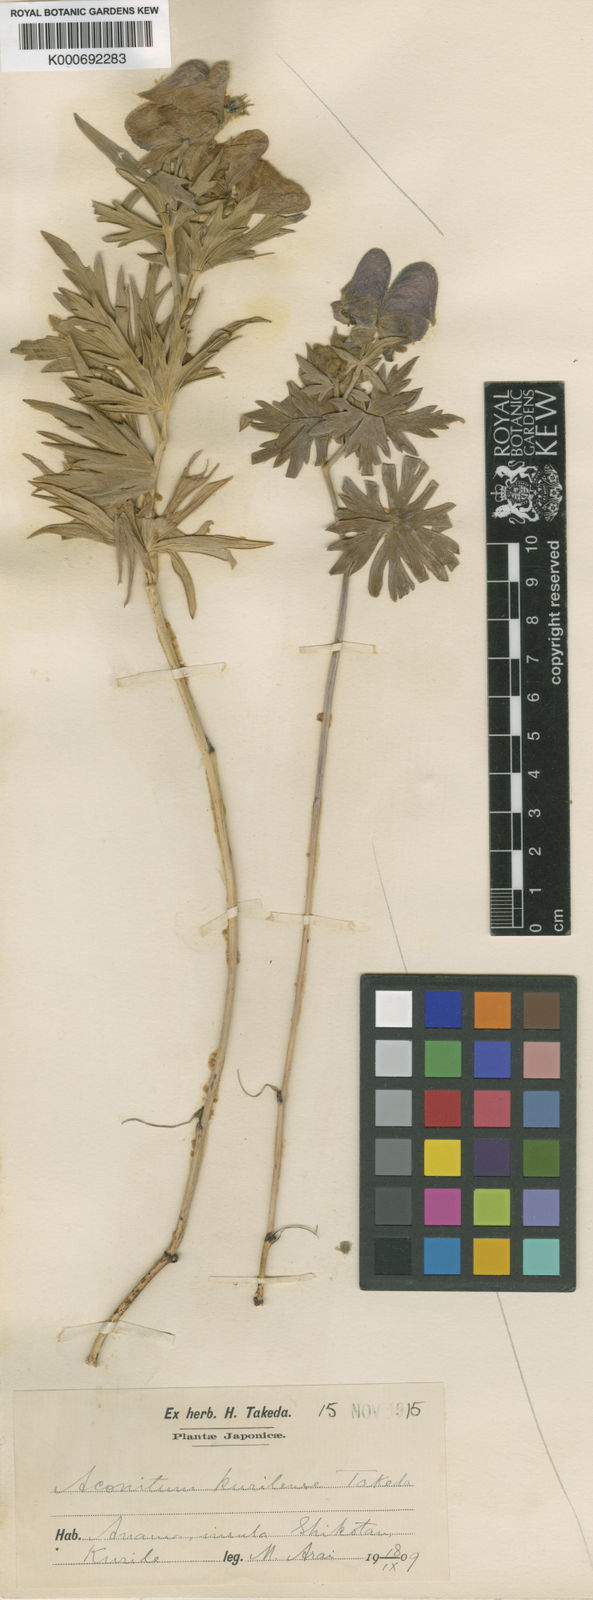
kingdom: Plantae
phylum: Tracheophyta
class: Magnoliopsida
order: Ranunculales
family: Ranunculaceae
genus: Aconitum
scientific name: Aconitum kurilense
